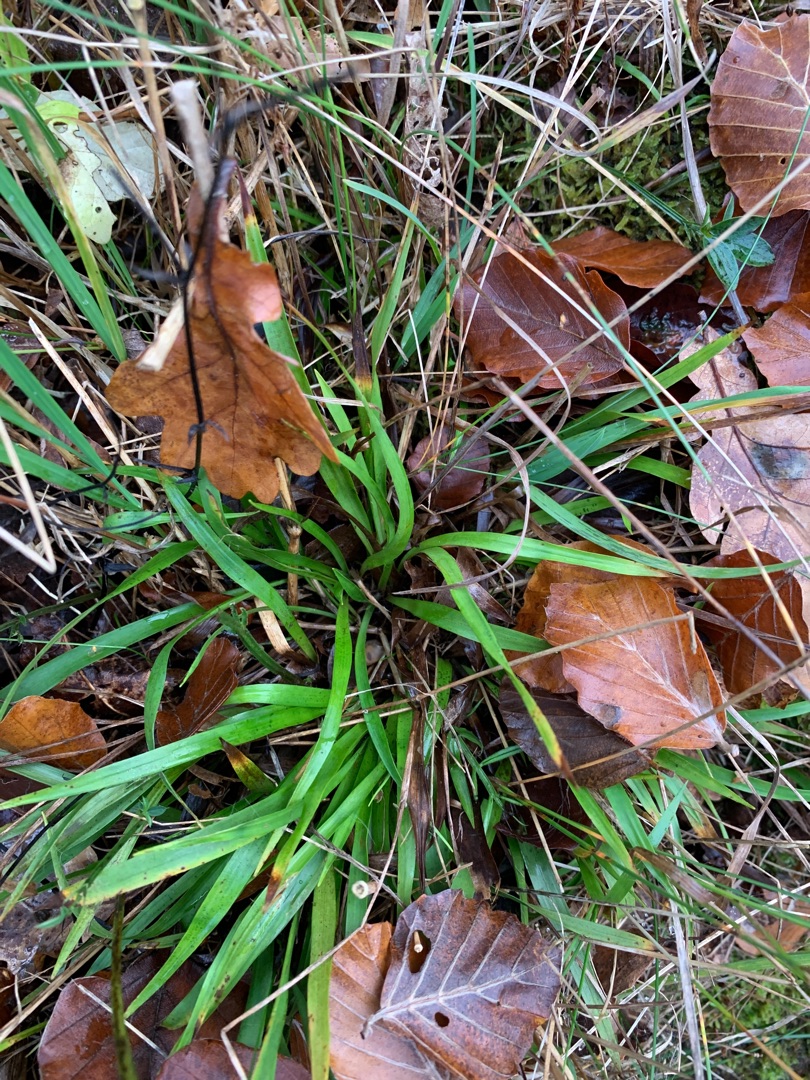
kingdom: Plantae
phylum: Tracheophyta
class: Liliopsida
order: Poales
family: Juncaceae
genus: Luzula
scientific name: Luzula pilosa
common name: Håret frytle
